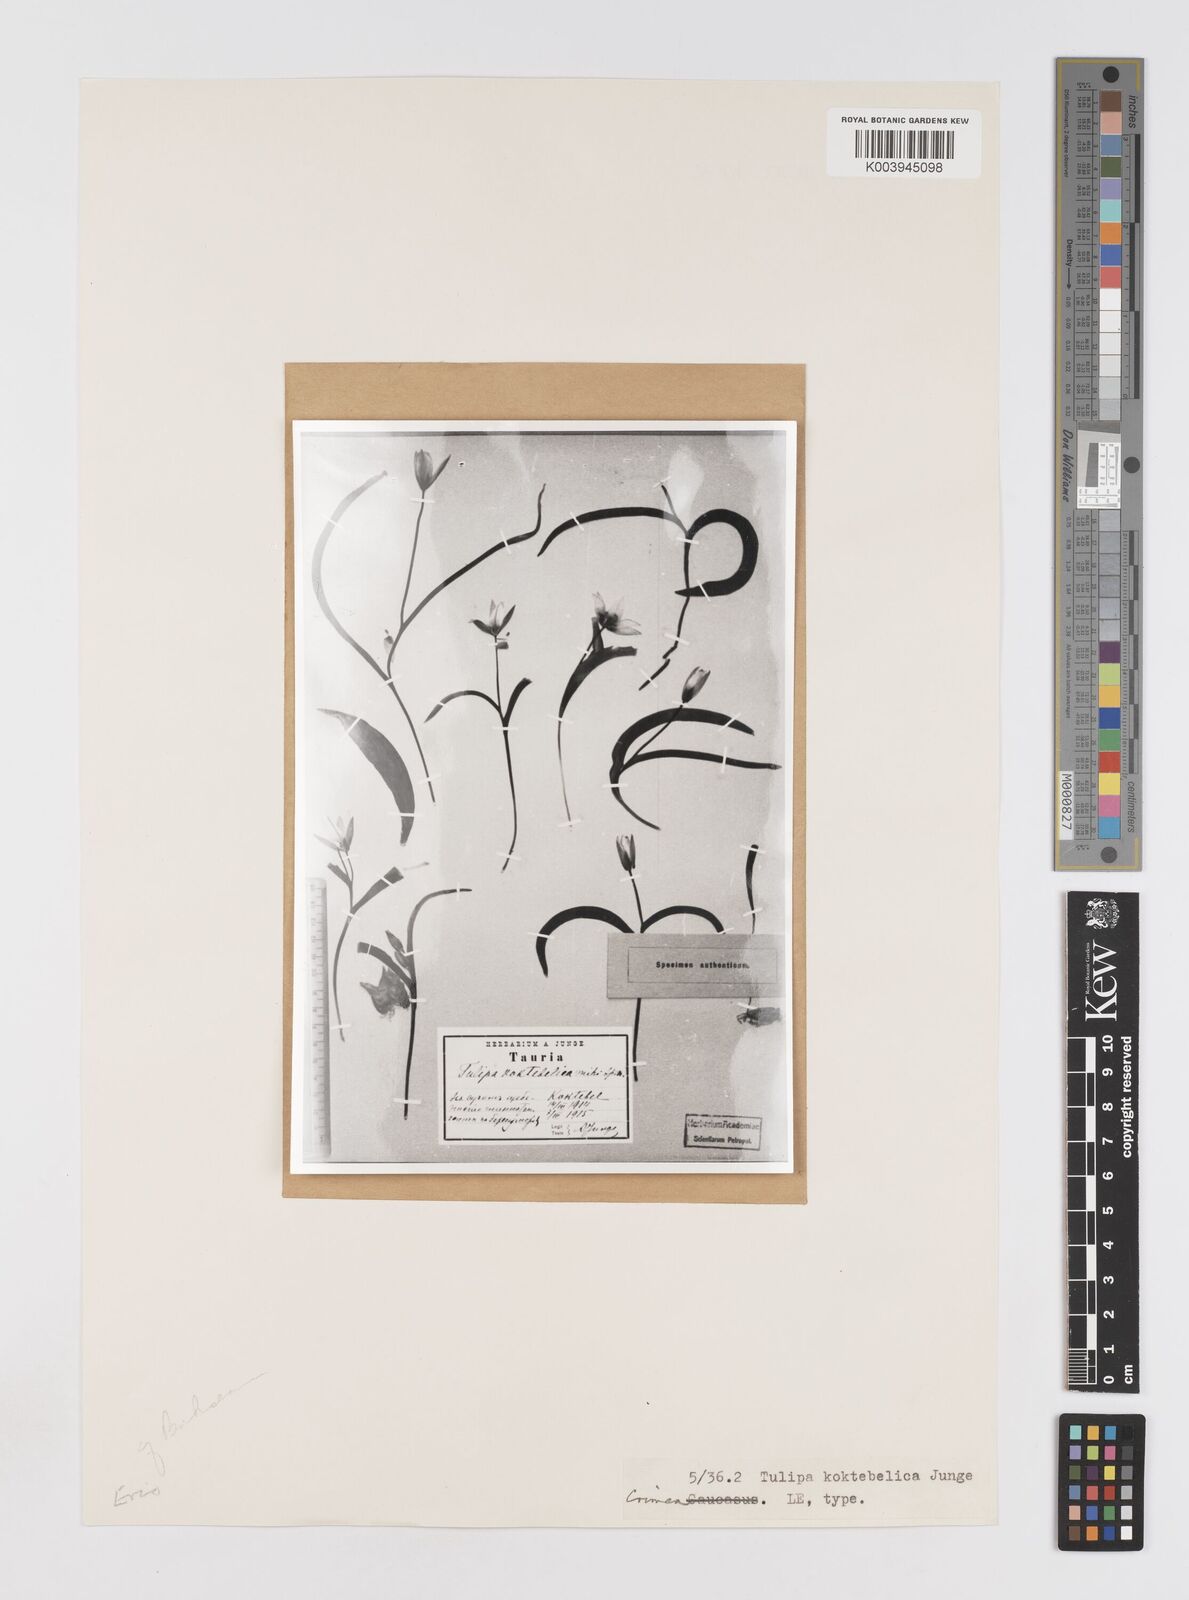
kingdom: Plantae
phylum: Tracheophyta
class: Liliopsida
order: Liliales
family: Liliaceae
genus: Tulipa
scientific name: Tulipa biflora
